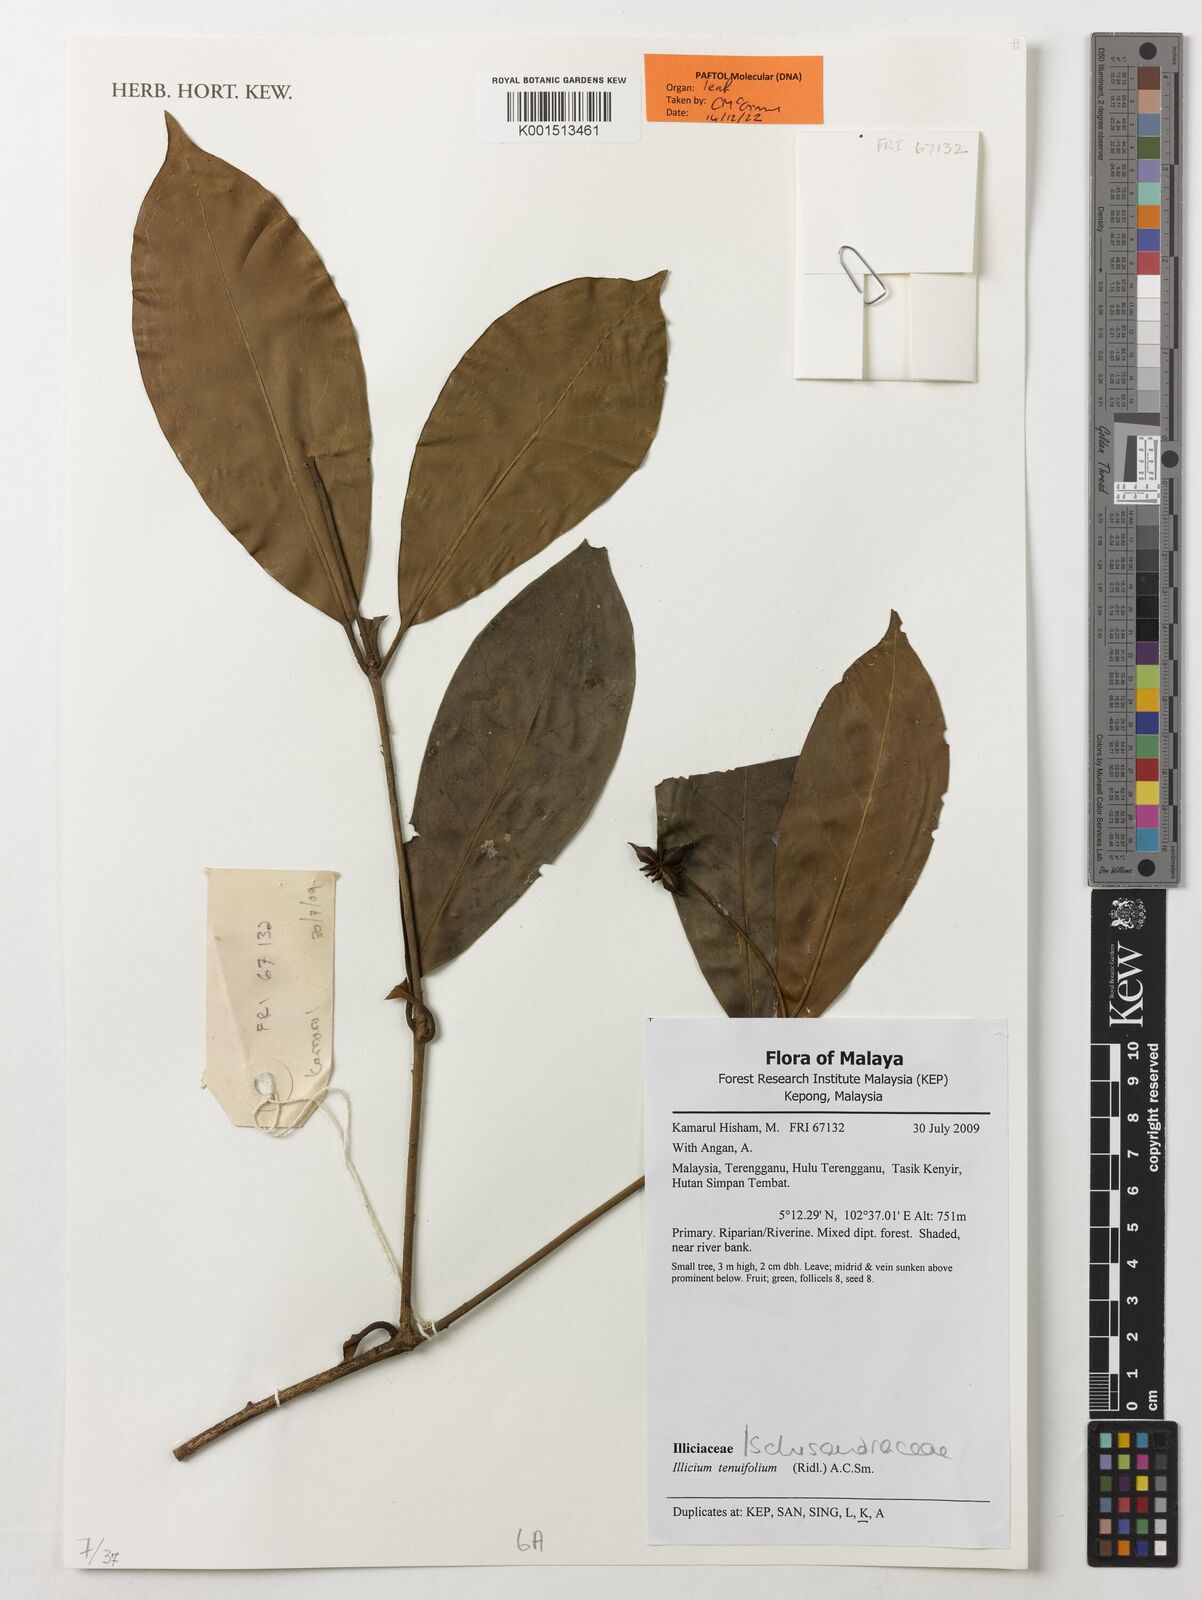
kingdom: Plantae
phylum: Tracheophyta
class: Magnoliopsida
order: Austrobaileyales
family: Schisandraceae
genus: Illicium
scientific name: Illicium tenuifolium
